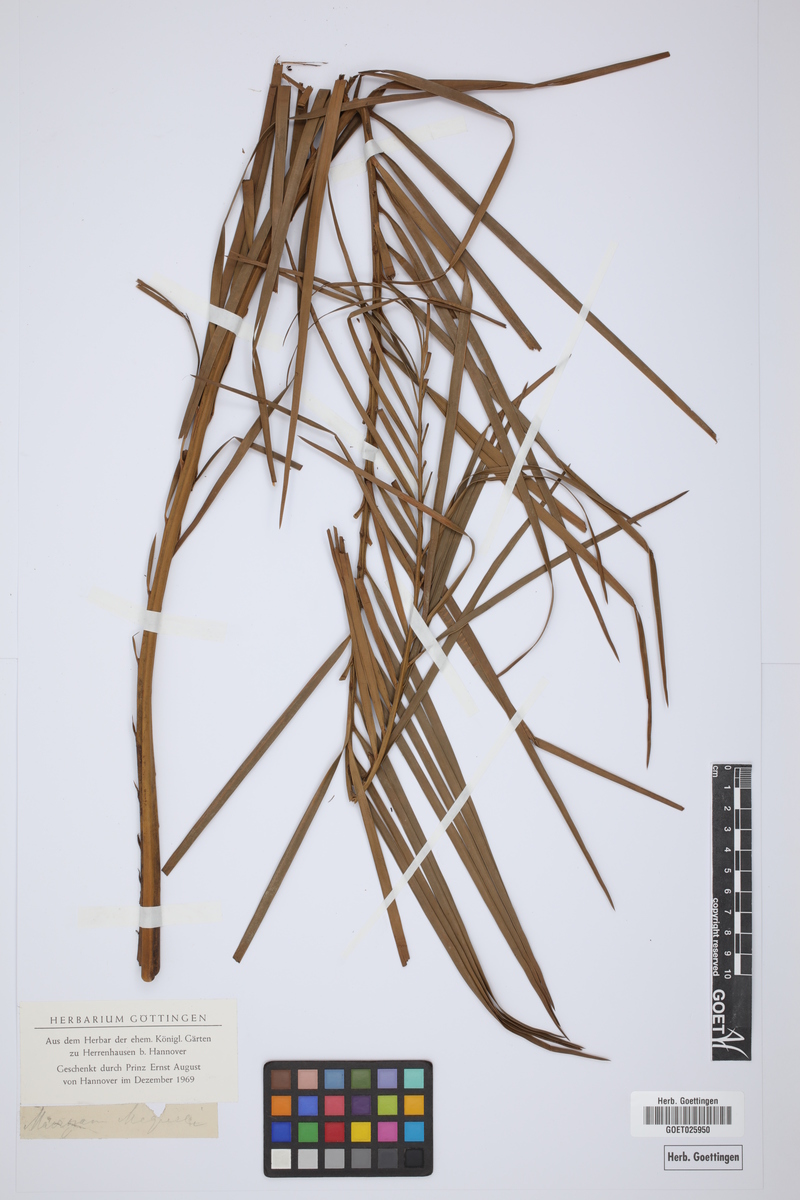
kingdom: Plantae
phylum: Tracheophyta
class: Cycadopsida
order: Cycadales
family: Cycadaceae
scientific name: Cycadaceae
